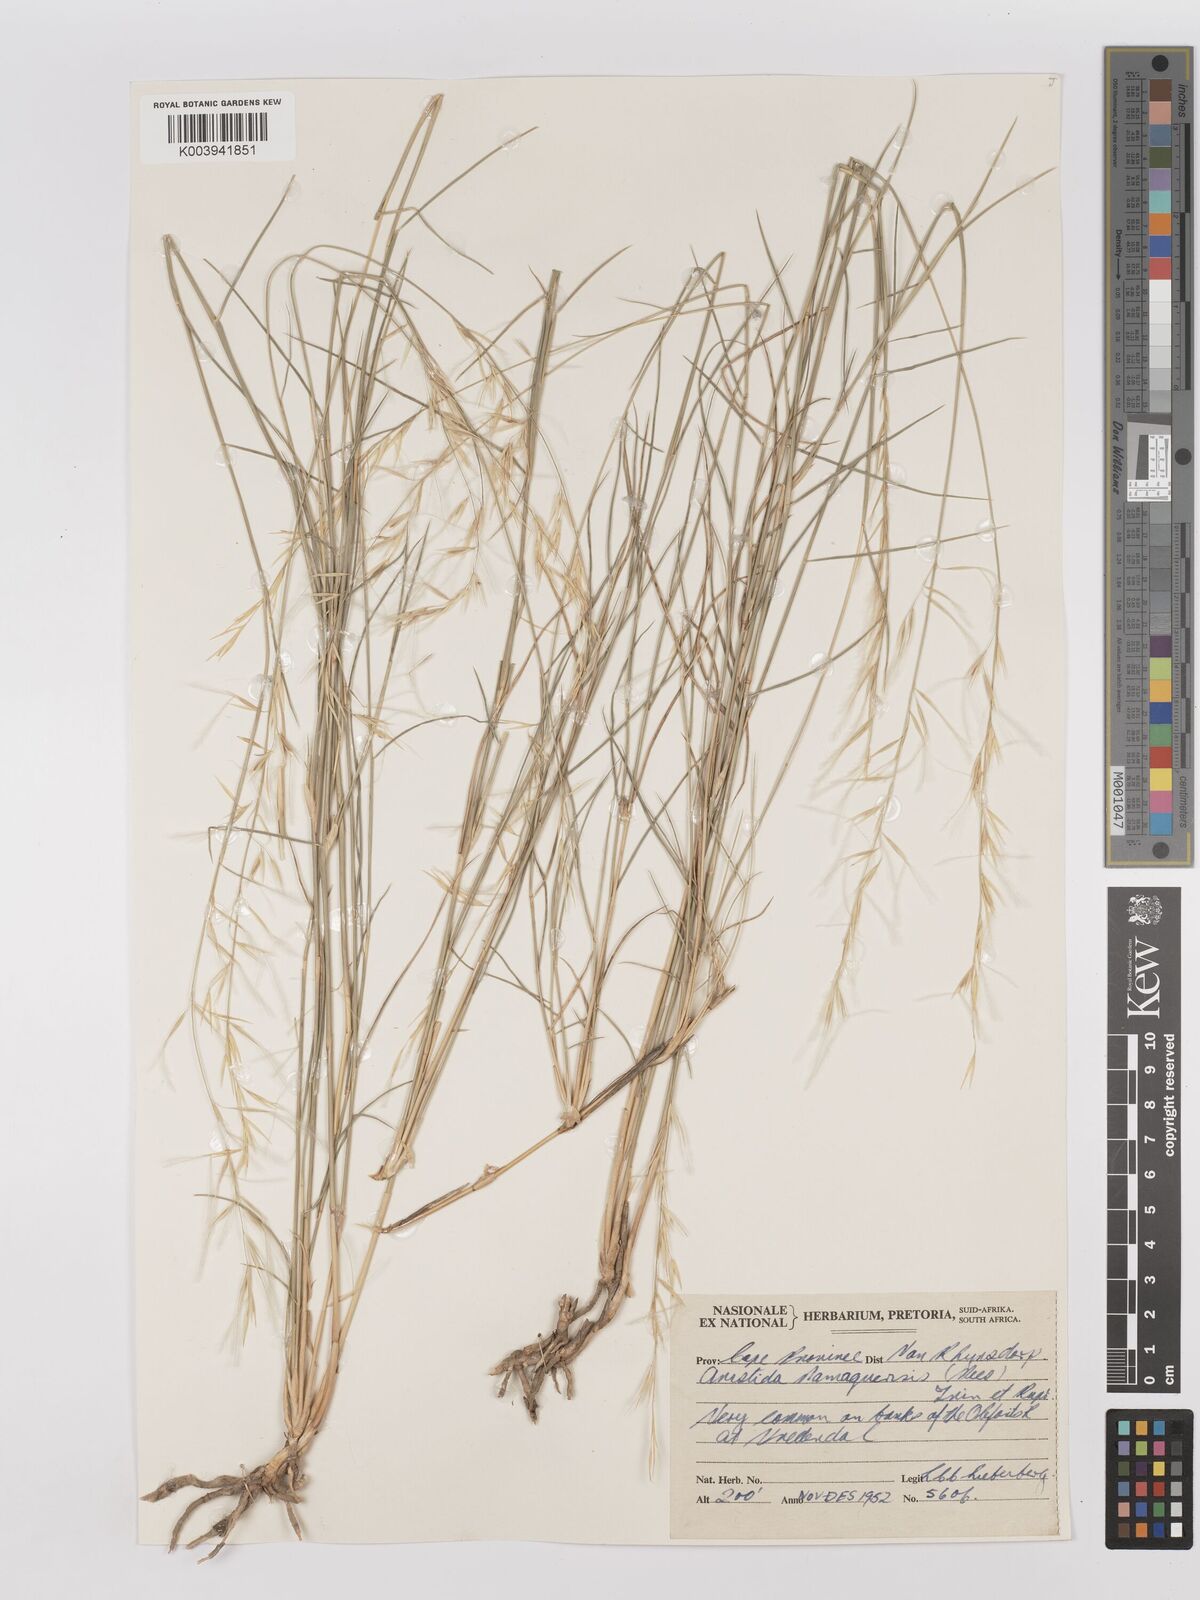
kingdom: Plantae
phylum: Tracheophyta
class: Liliopsida
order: Poales
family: Poaceae
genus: Stipagrostis
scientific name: Stipagrostis namaquensis
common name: River bushman grass
